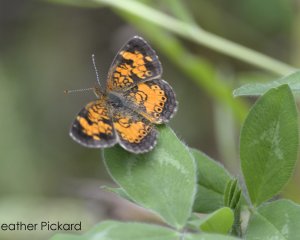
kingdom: Animalia
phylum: Arthropoda
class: Insecta
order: Lepidoptera
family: Nymphalidae
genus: Phyciodes
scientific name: Phyciodes tharos
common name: Northern Crescent
